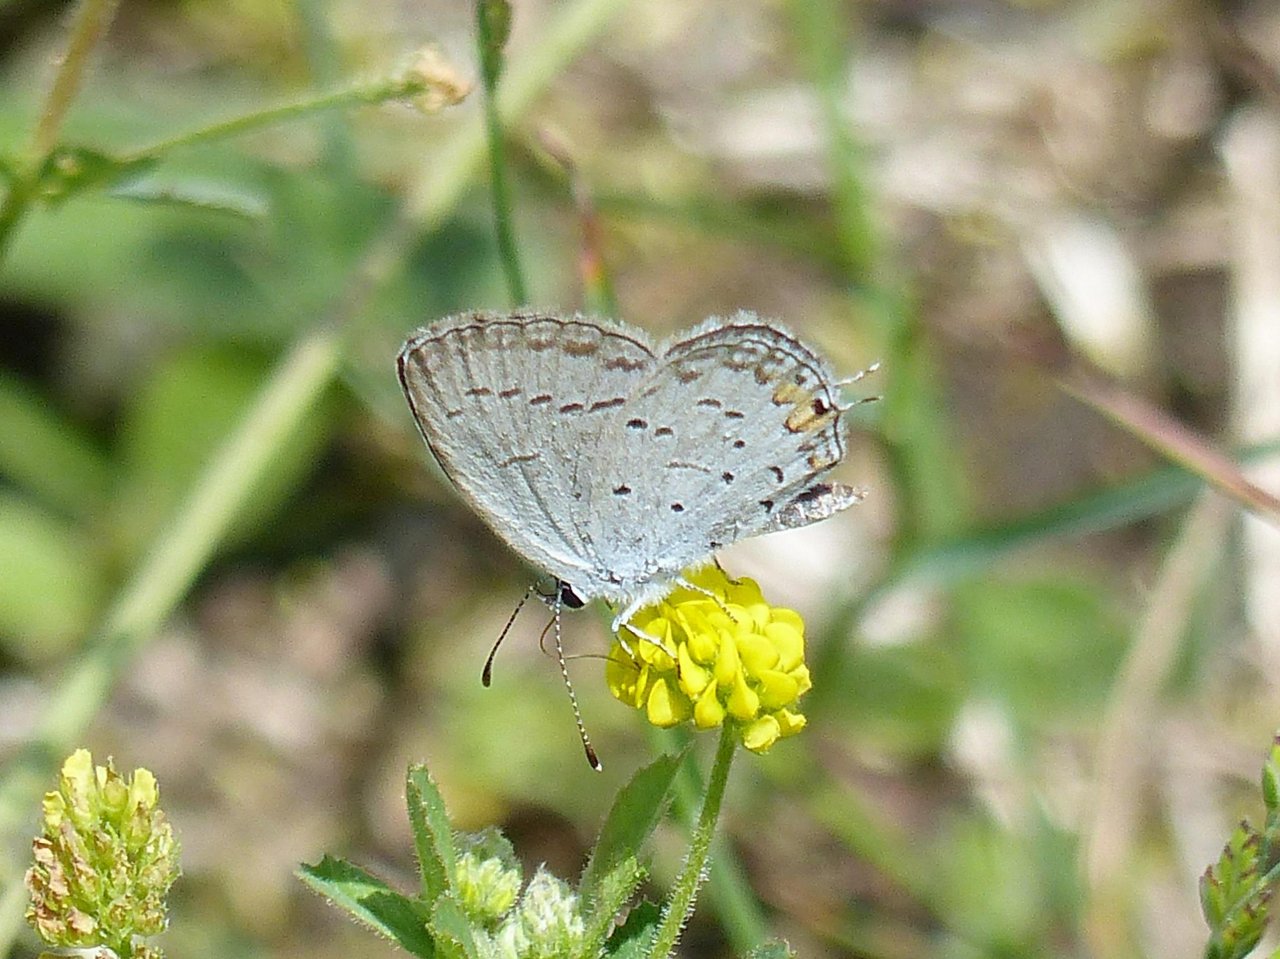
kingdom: Animalia
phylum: Arthropoda
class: Insecta
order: Lepidoptera
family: Lycaenidae
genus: Elkalyce
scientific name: Elkalyce comyntas
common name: Eastern Tailed-Blue
